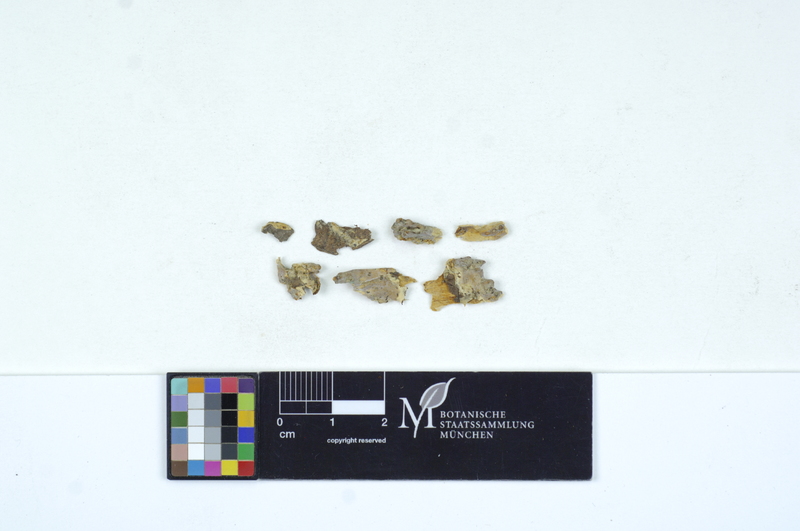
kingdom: Fungi
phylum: Basidiomycota
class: Agaricomycetes
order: Sebacinales
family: Sebacinaceae
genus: Helvellosebacina
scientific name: Helvellosebacina helvelloides
